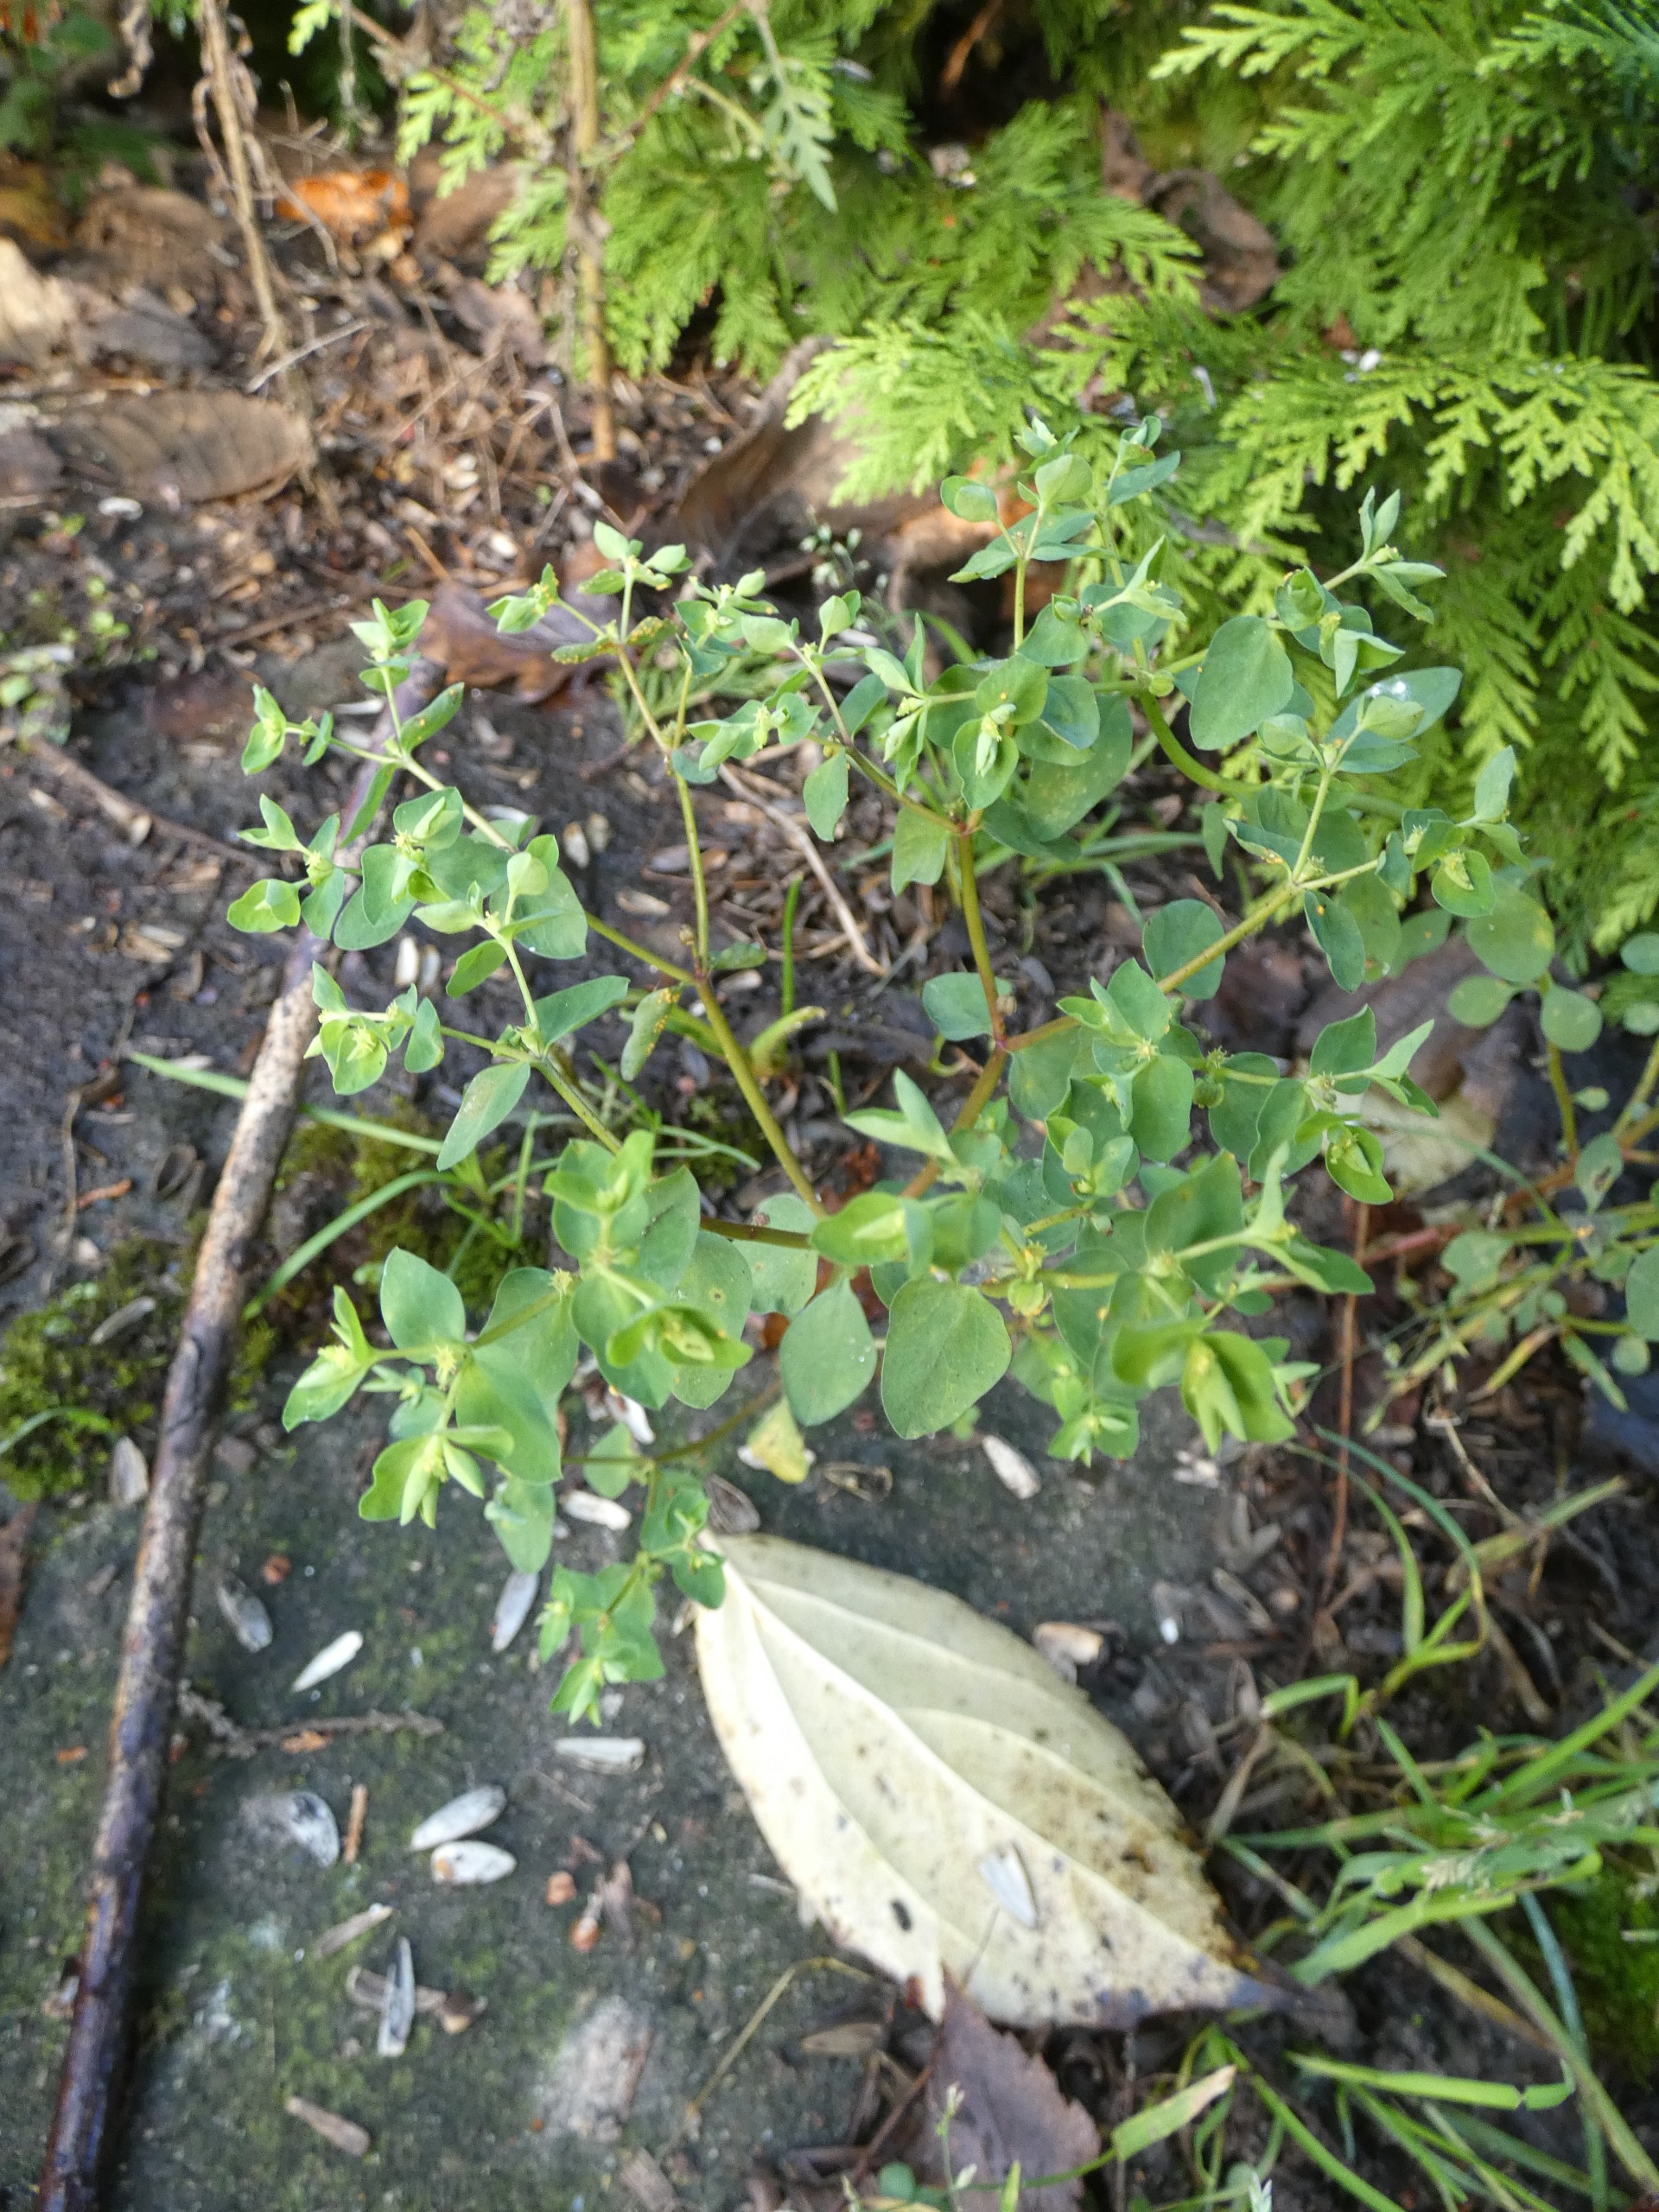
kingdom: Plantae
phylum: Tracheophyta
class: Magnoliopsida
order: Malpighiales
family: Euphorbiaceae
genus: Euphorbia
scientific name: Euphorbia peplus
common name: Gaffel-vortemælk
